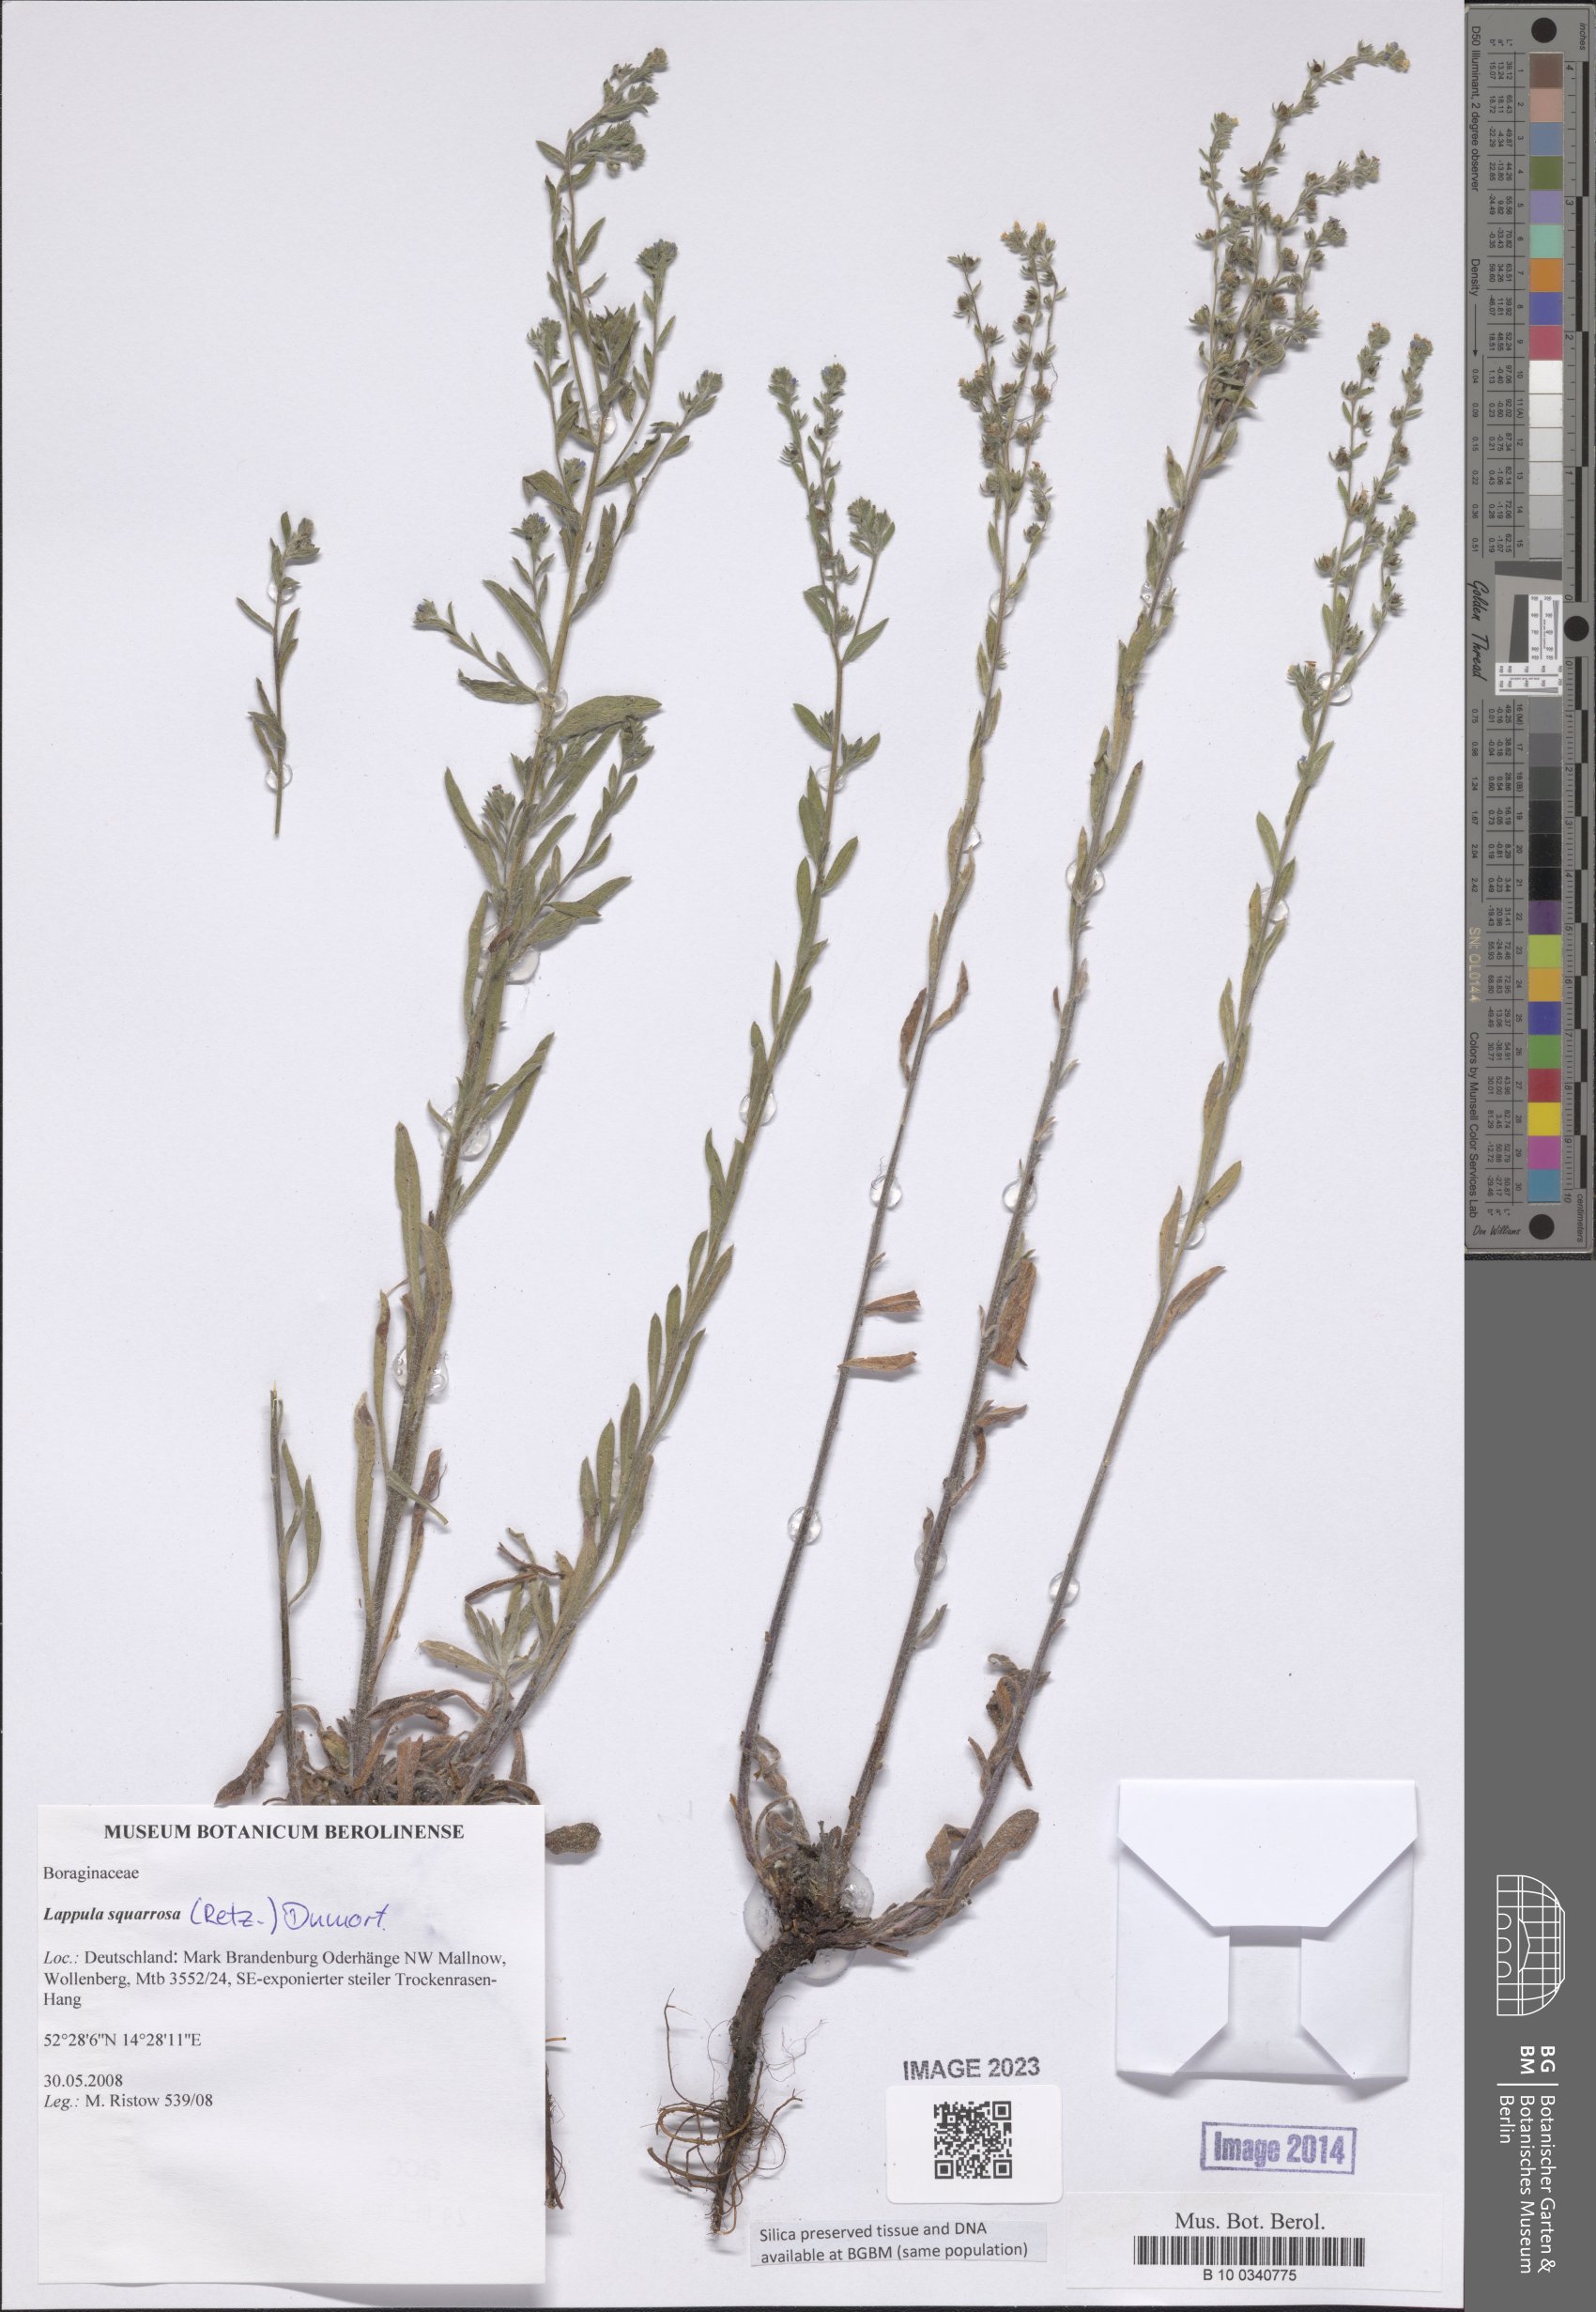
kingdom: Plantae
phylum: Tracheophyta
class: Magnoliopsida
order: Boraginales
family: Boraginaceae
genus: Lappula
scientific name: Lappula squarrosa
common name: European stickseed
